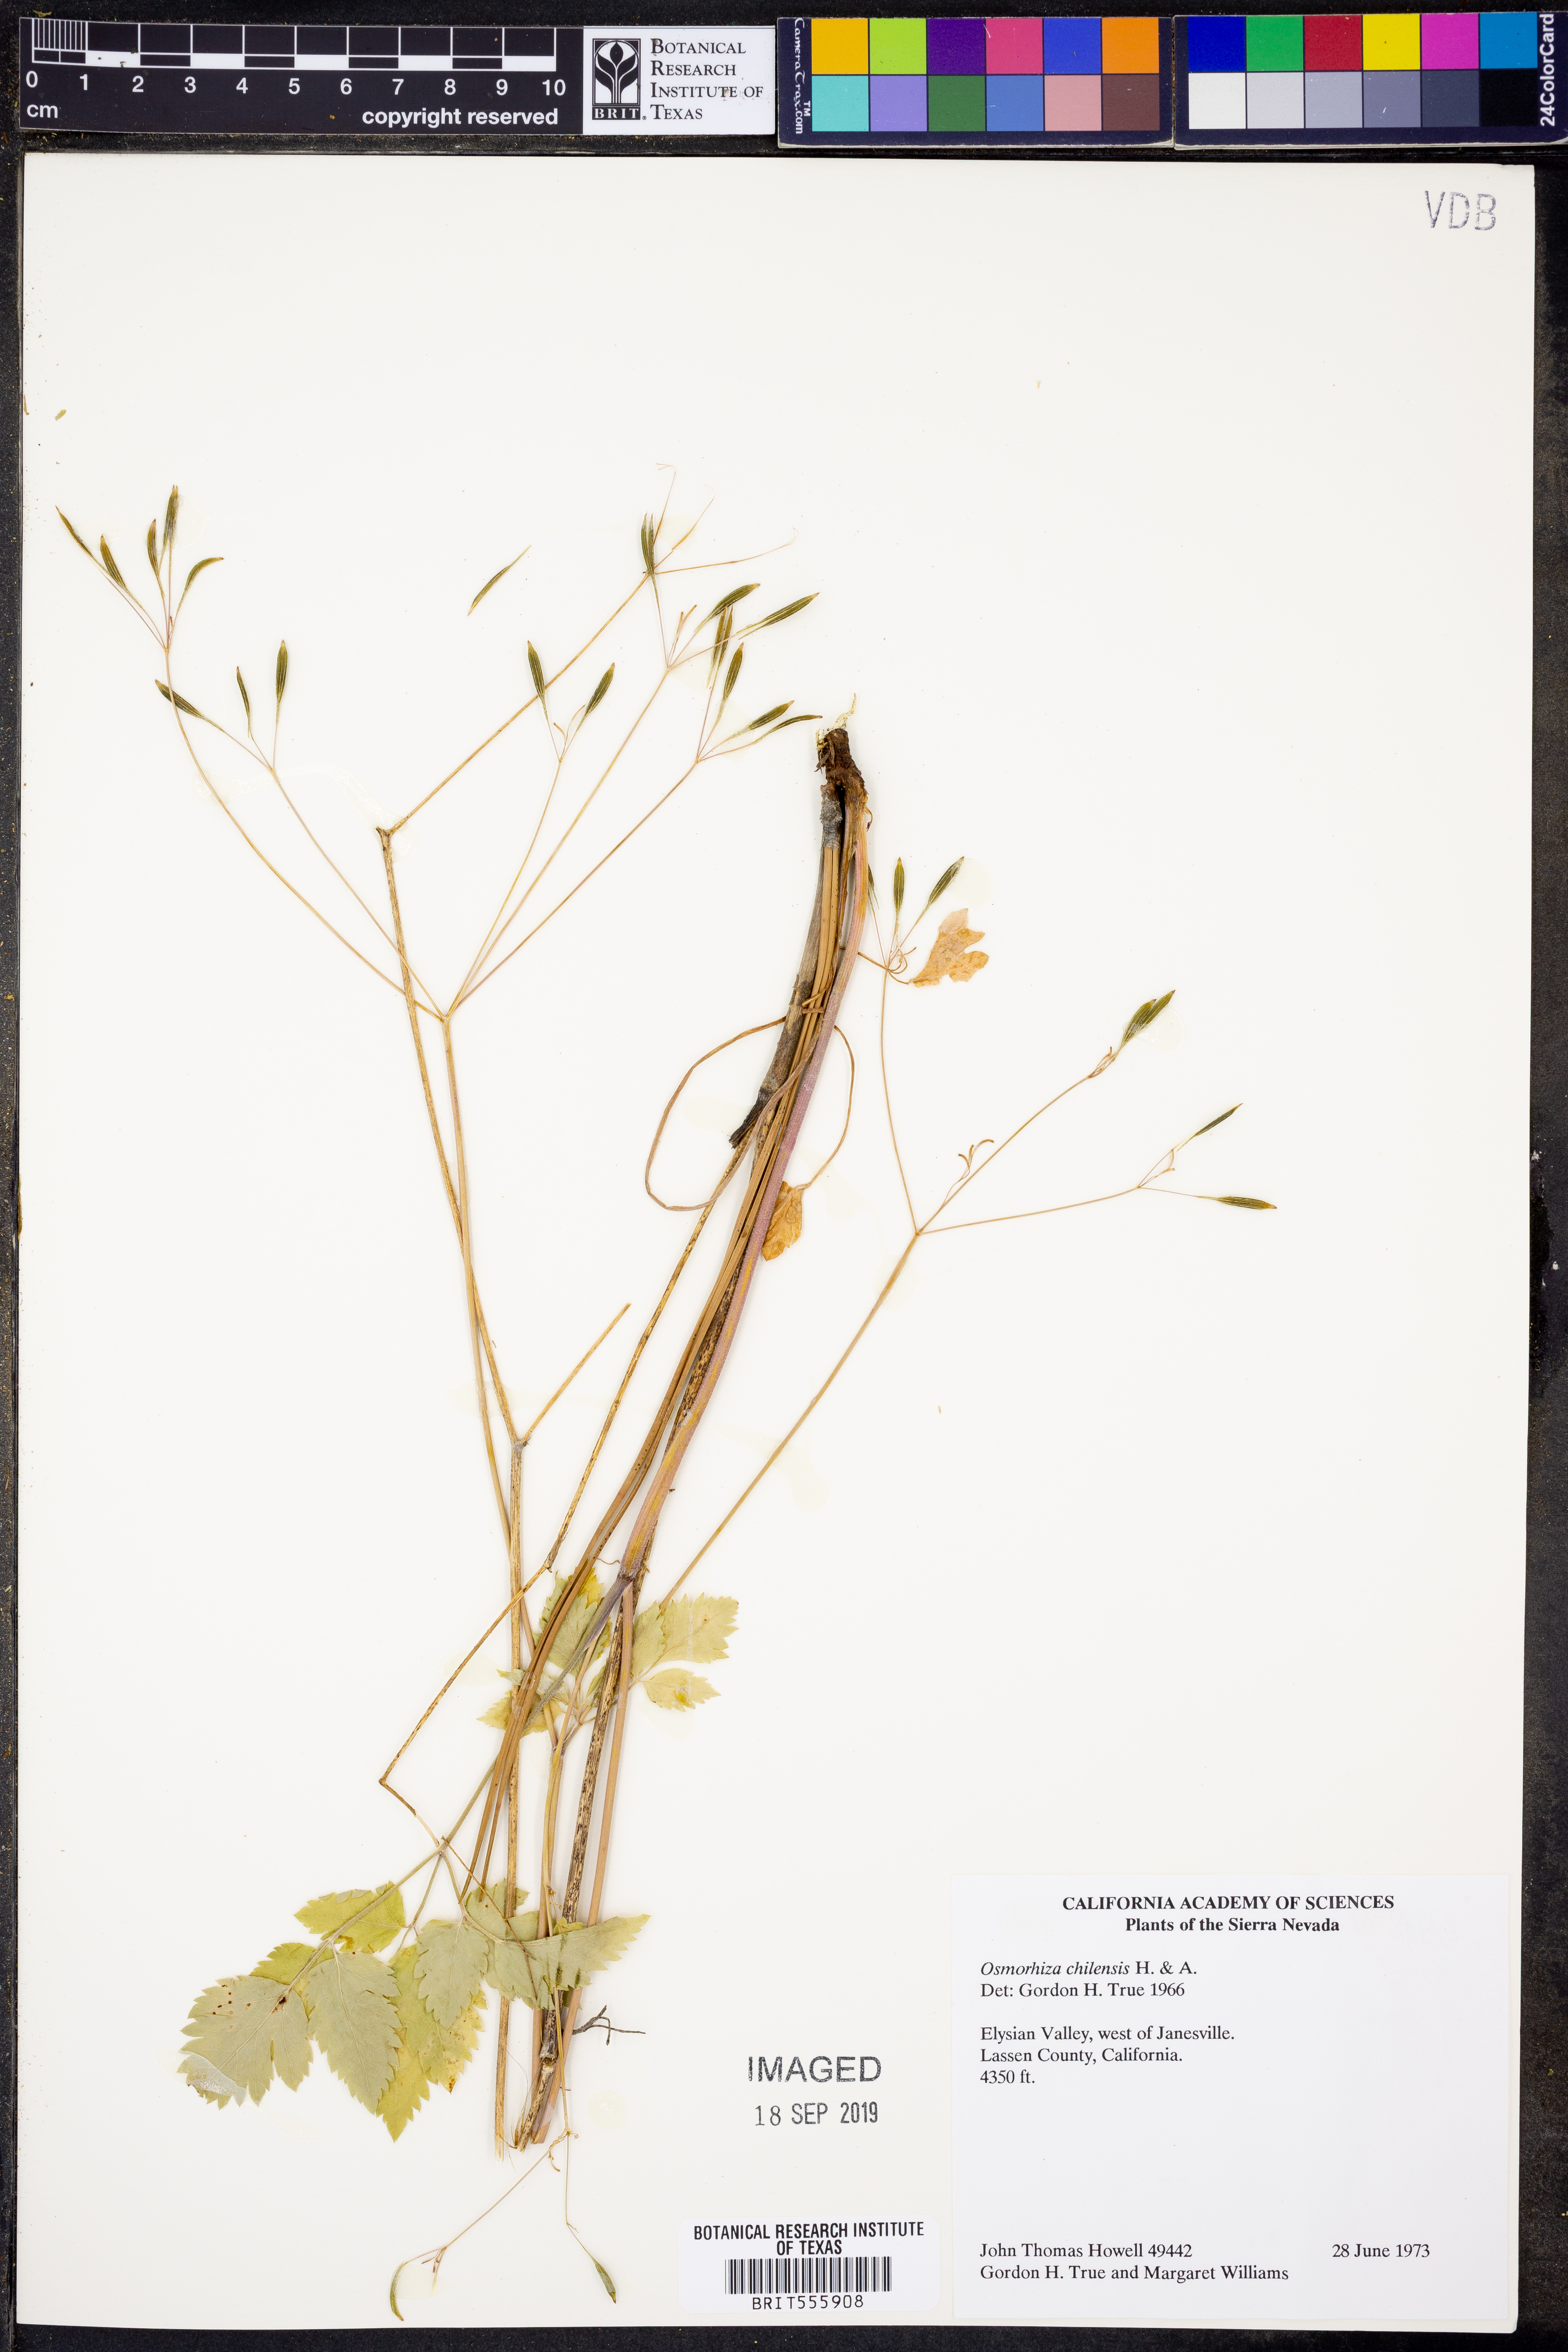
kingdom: Plantae
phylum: Tracheophyta
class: Magnoliopsida
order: Apiales
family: Apiaceae
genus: Osmorhiza
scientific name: Osmorhiza berteroi
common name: Mountain sweet cicely
